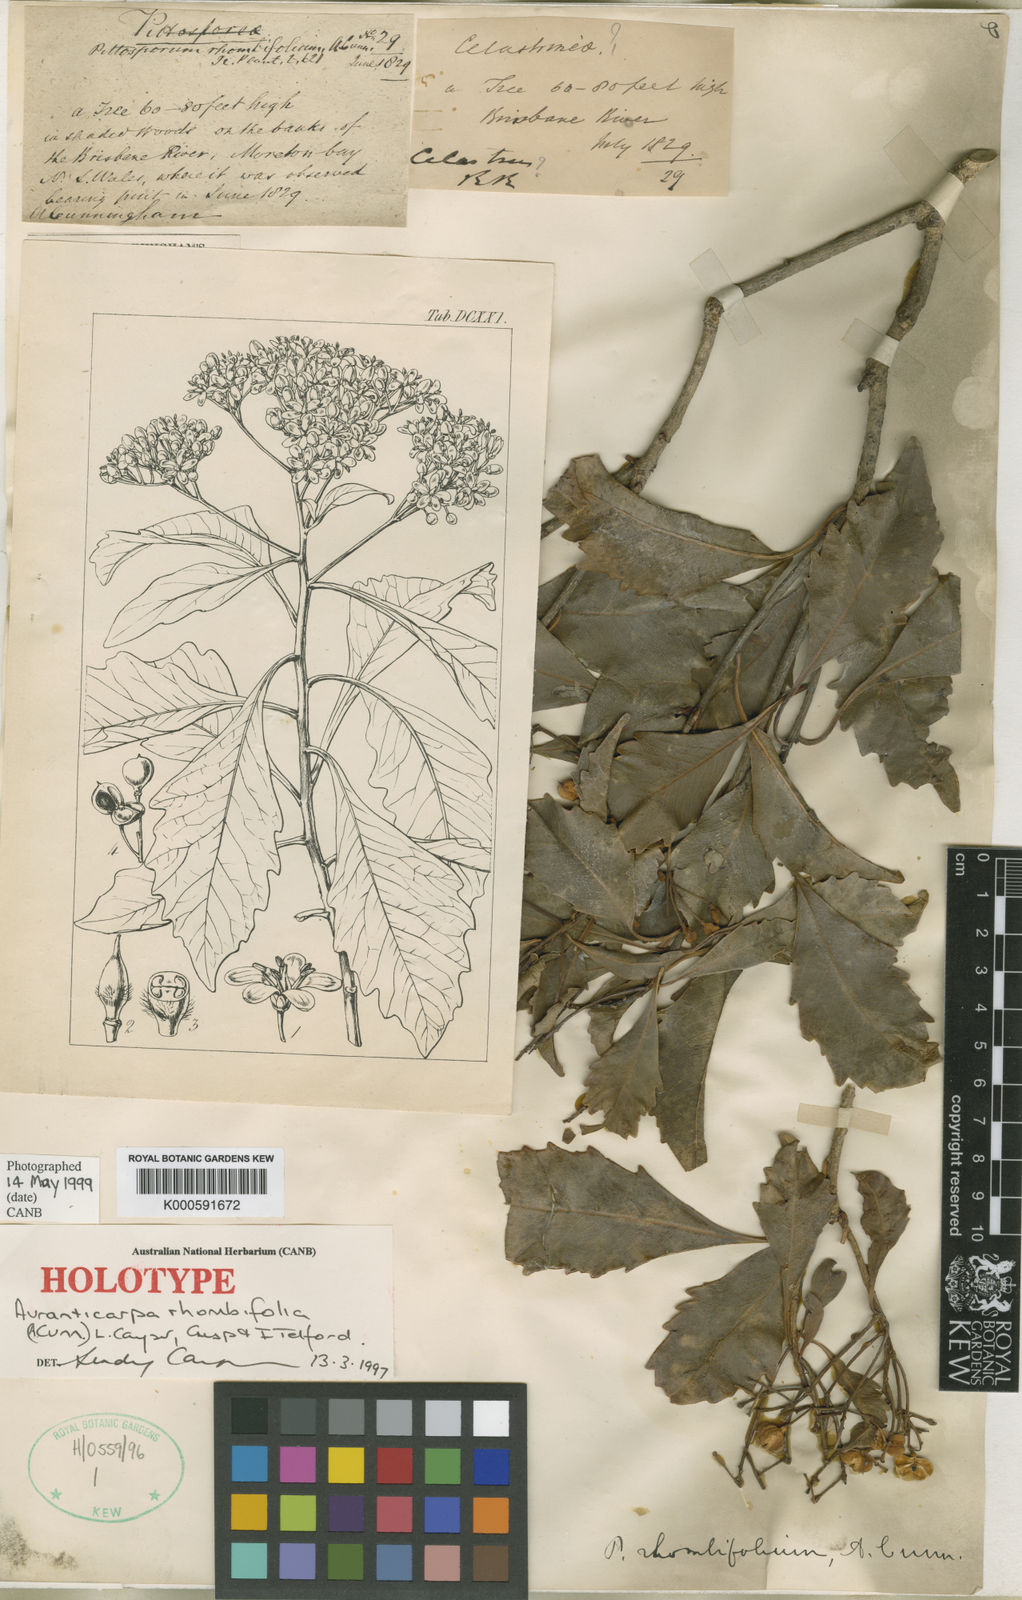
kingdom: Plantae
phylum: Tracheophyta
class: Magnoliopsida
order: Apiales
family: Pittosporaceae
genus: Auranticarpa
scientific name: Auranticarpa rhombifolia
